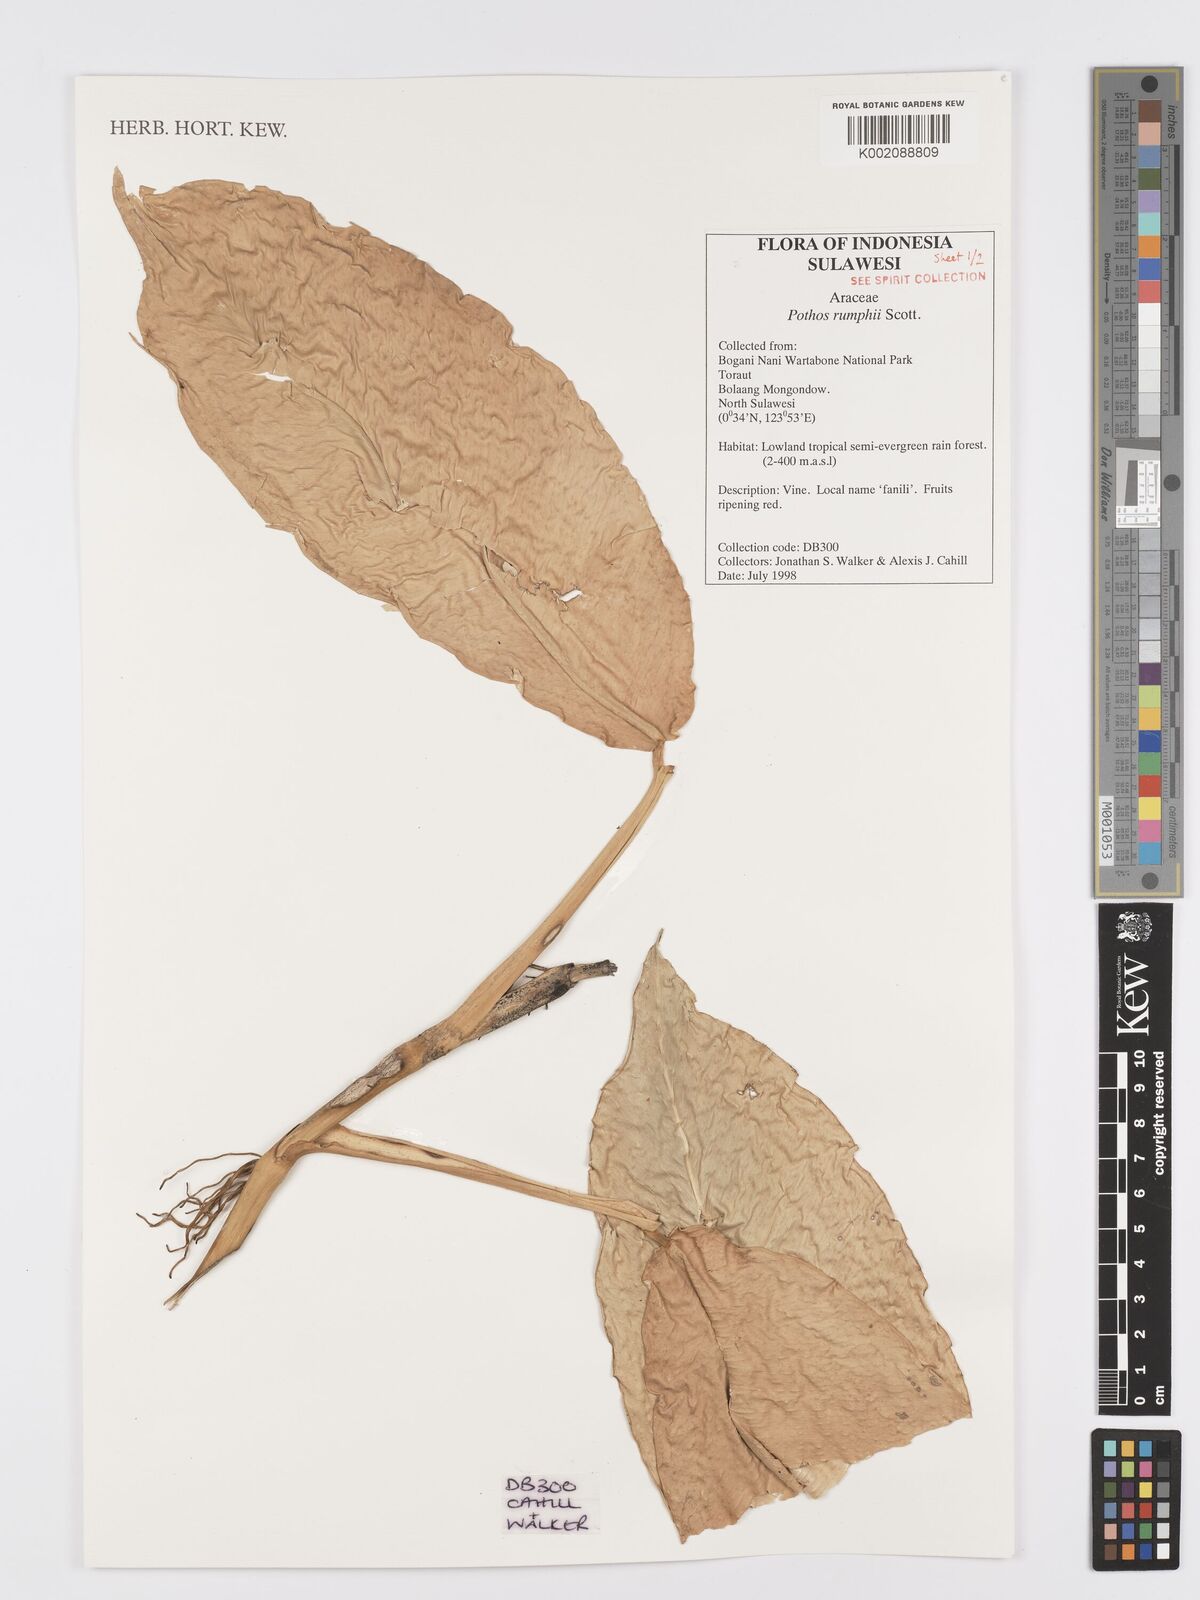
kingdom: Plantae
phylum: Tracheophyta
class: Liliopsida
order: Alismatales
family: Araceae
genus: Pothos
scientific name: Pothos tener
